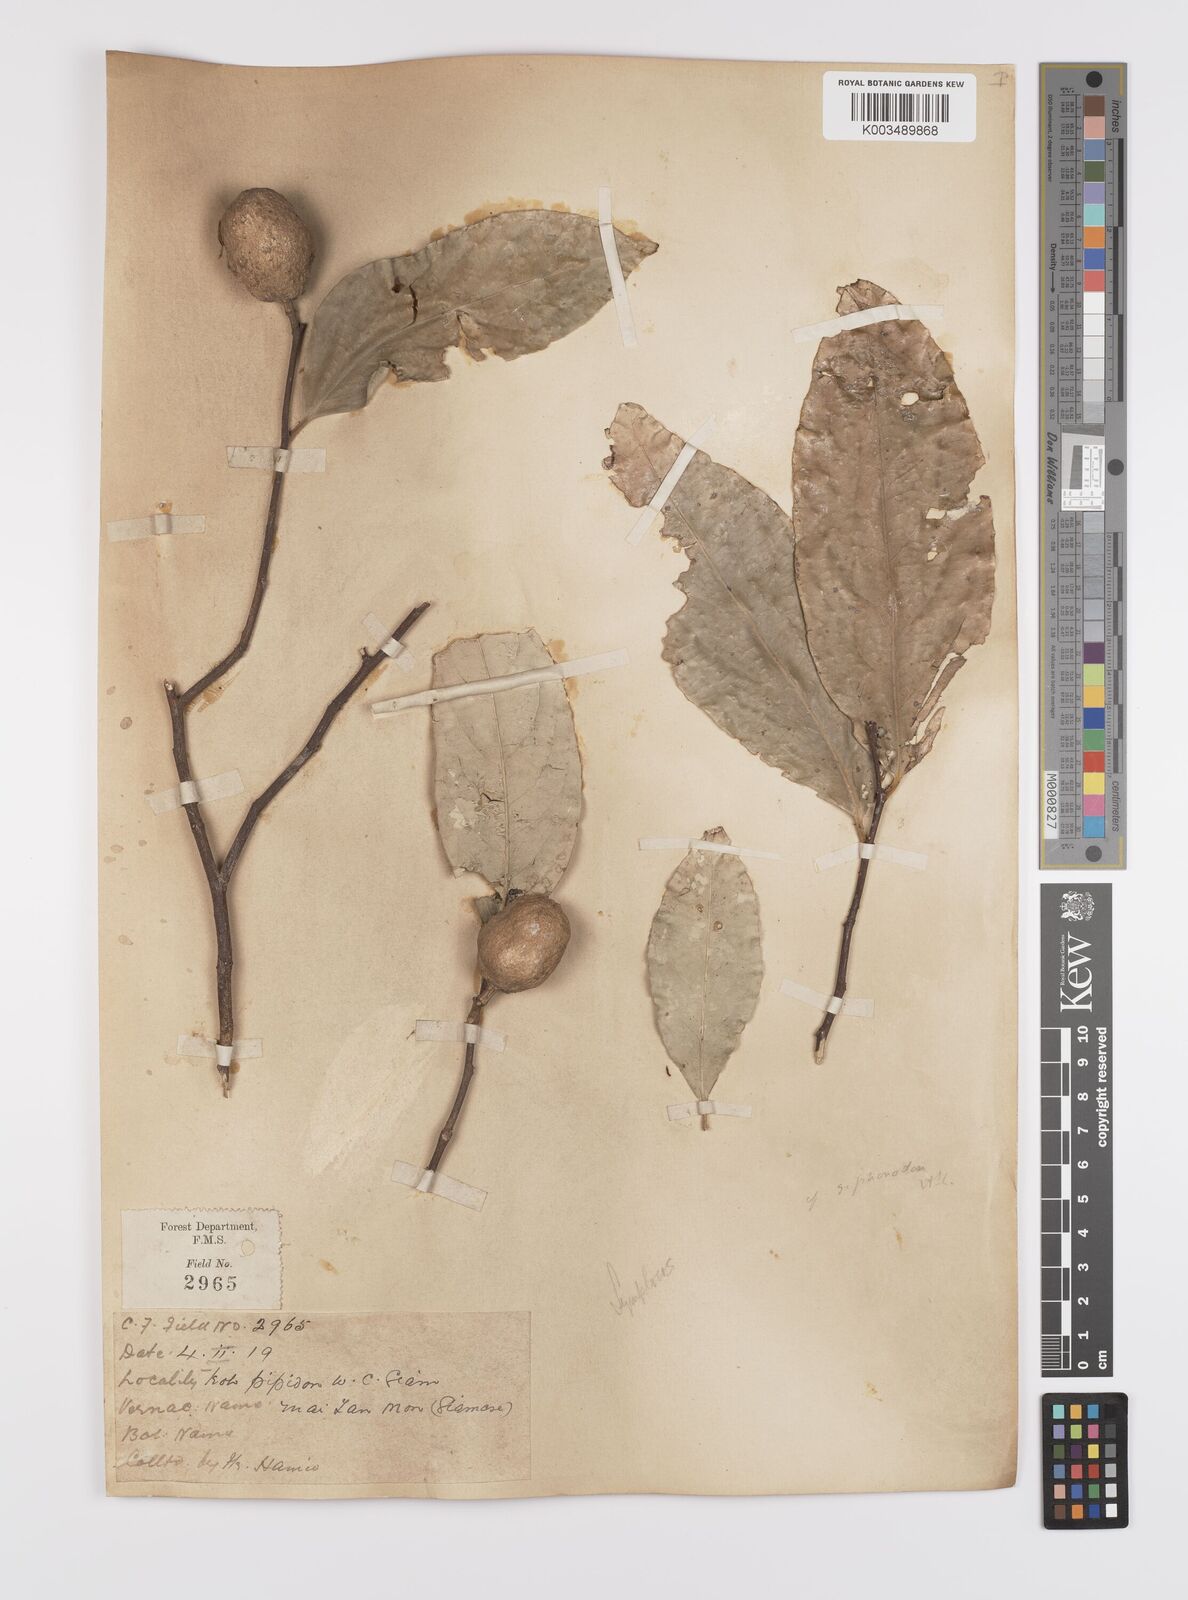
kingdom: Plantae
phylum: Tracheophyta
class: Magnoliopsida
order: Celastrales
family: Celastraceae
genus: Siphonodon
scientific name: Siphonodon
